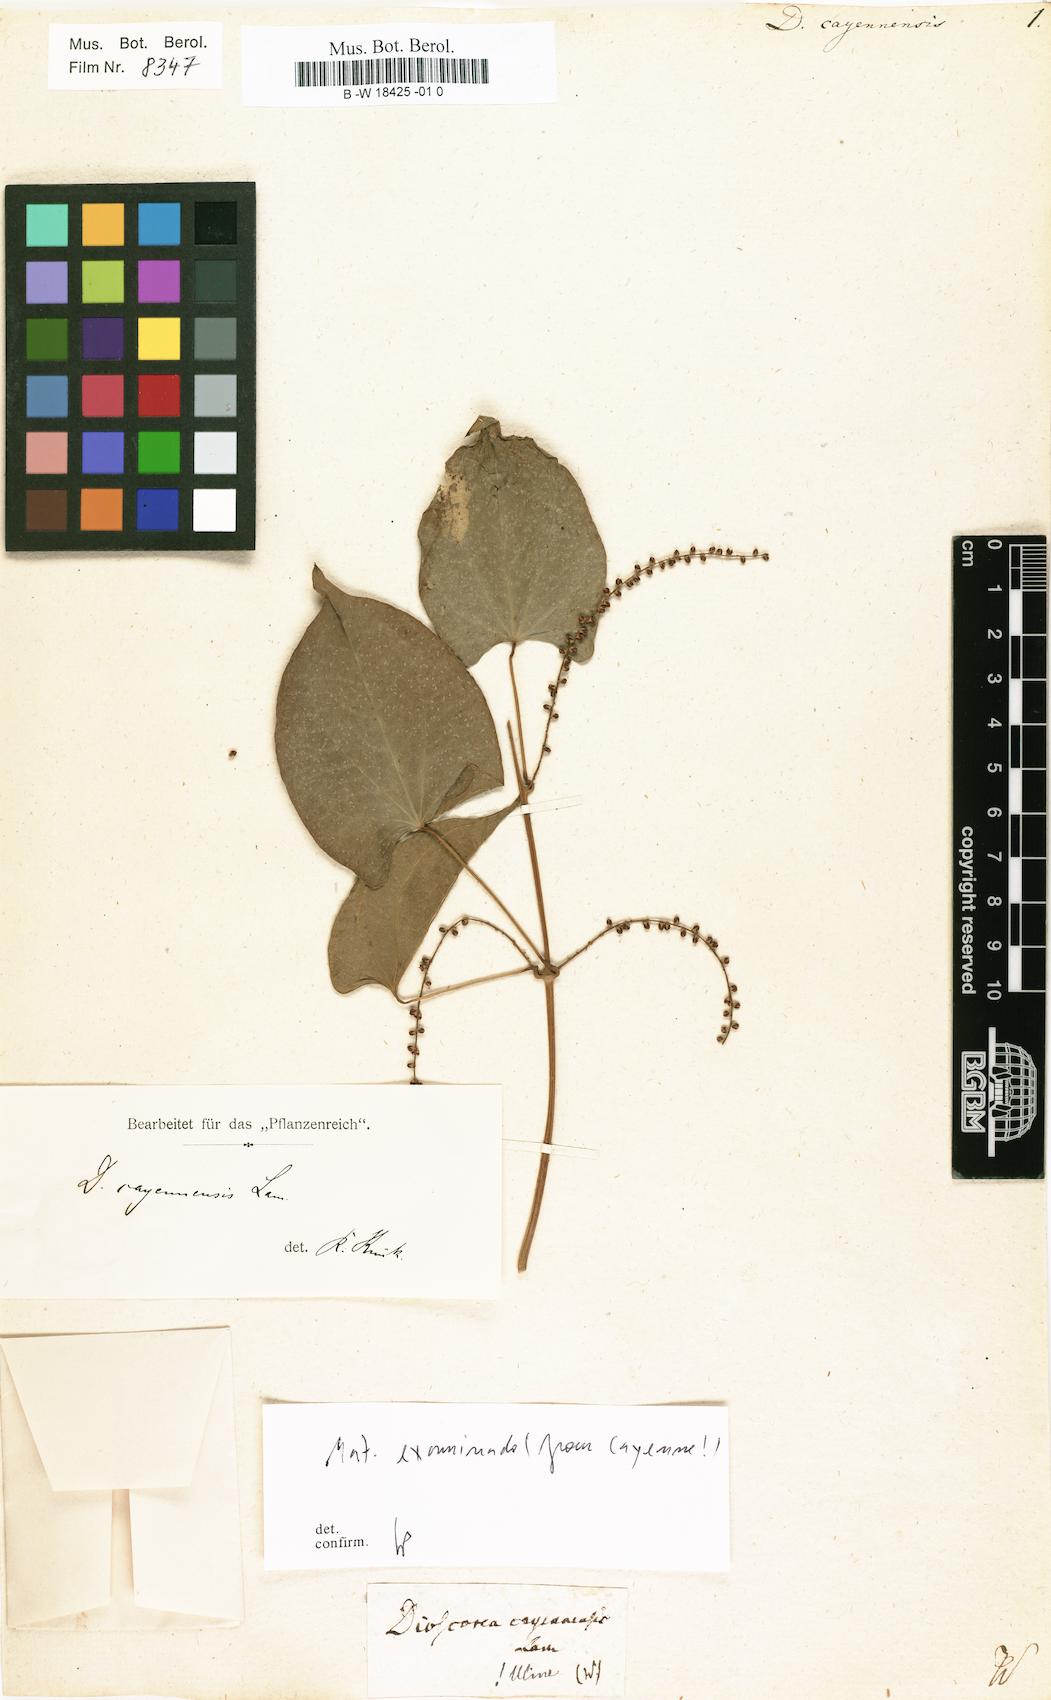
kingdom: Plantae
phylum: Tracheophyta
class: Liliopsida
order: Dioscoreales
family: Dioscoreaceae
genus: Dioscorea
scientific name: Dioscorea cayenensis
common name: Attoto yam
